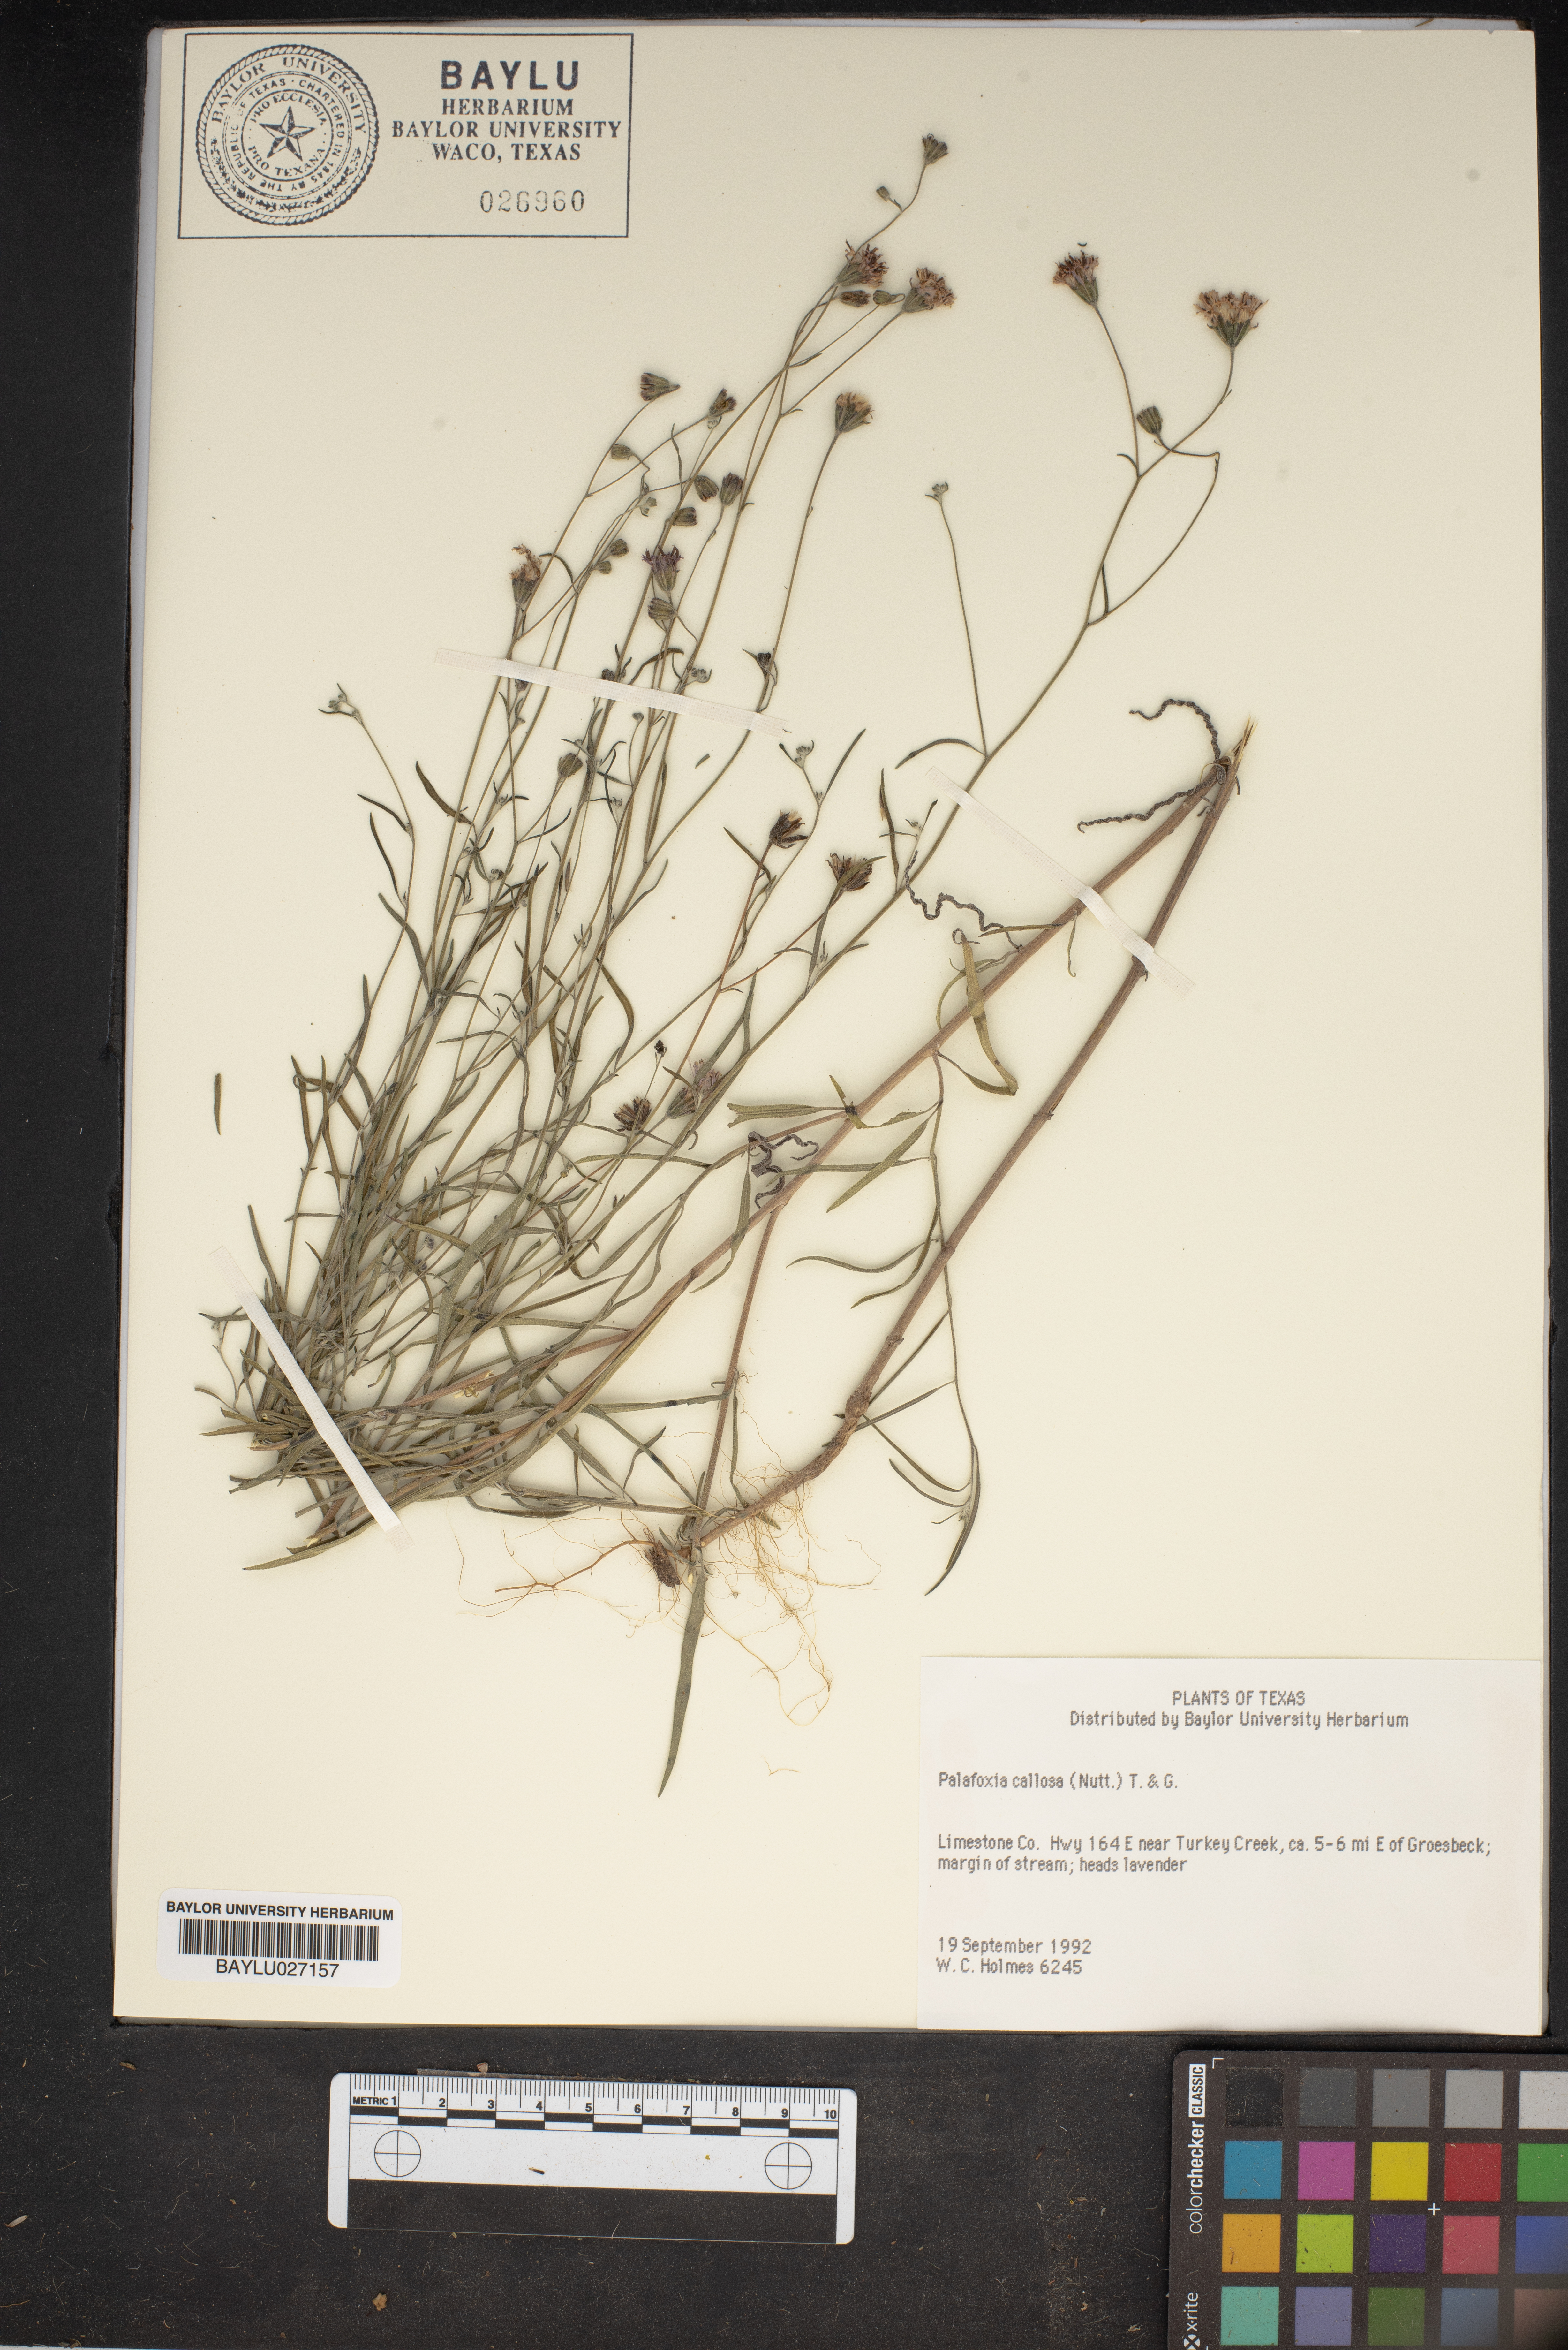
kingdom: Plantae
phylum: Tracheophyta
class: Magnoliopsida
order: Asterales
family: Asteraceae
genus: Palafoxia
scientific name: Palafoxia callosa
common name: Small palafox
